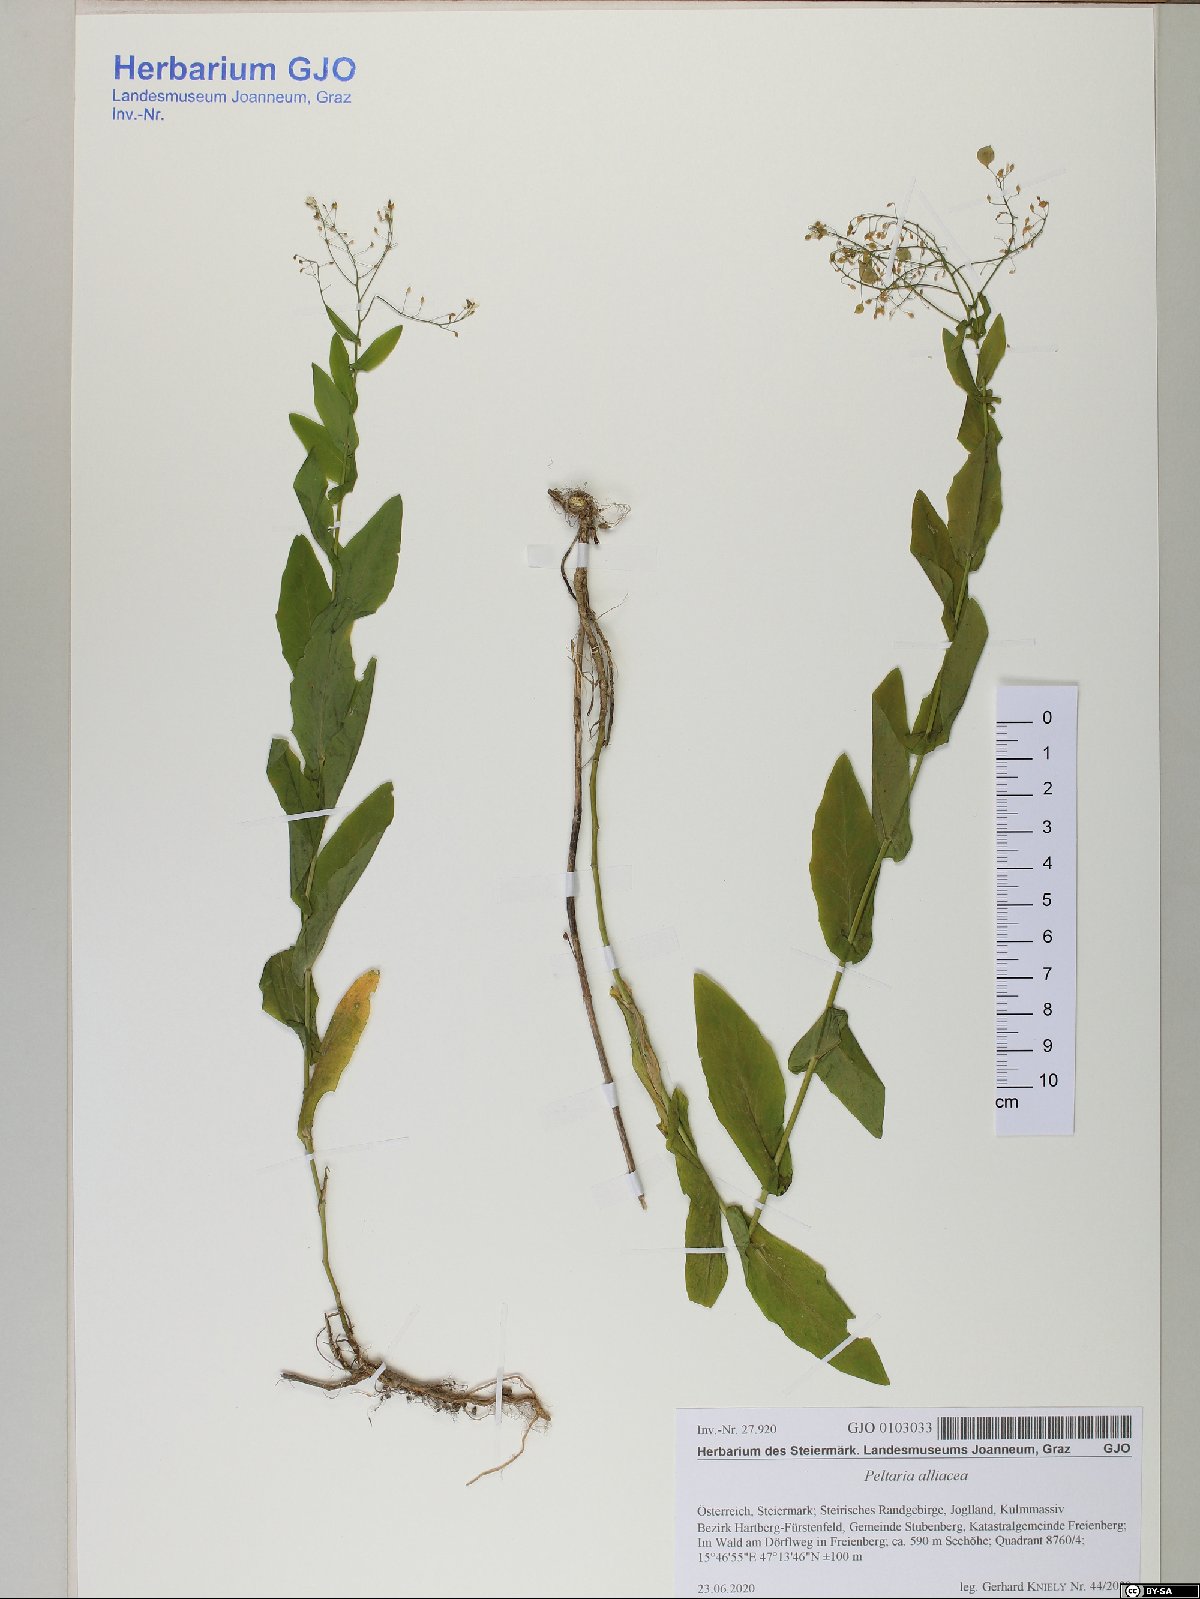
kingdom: Plantae
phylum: Tracheophyta
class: Magnoliopsida
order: Brassicales
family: Brassicaceae
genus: Peltaria
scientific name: Peltaria alliacea
